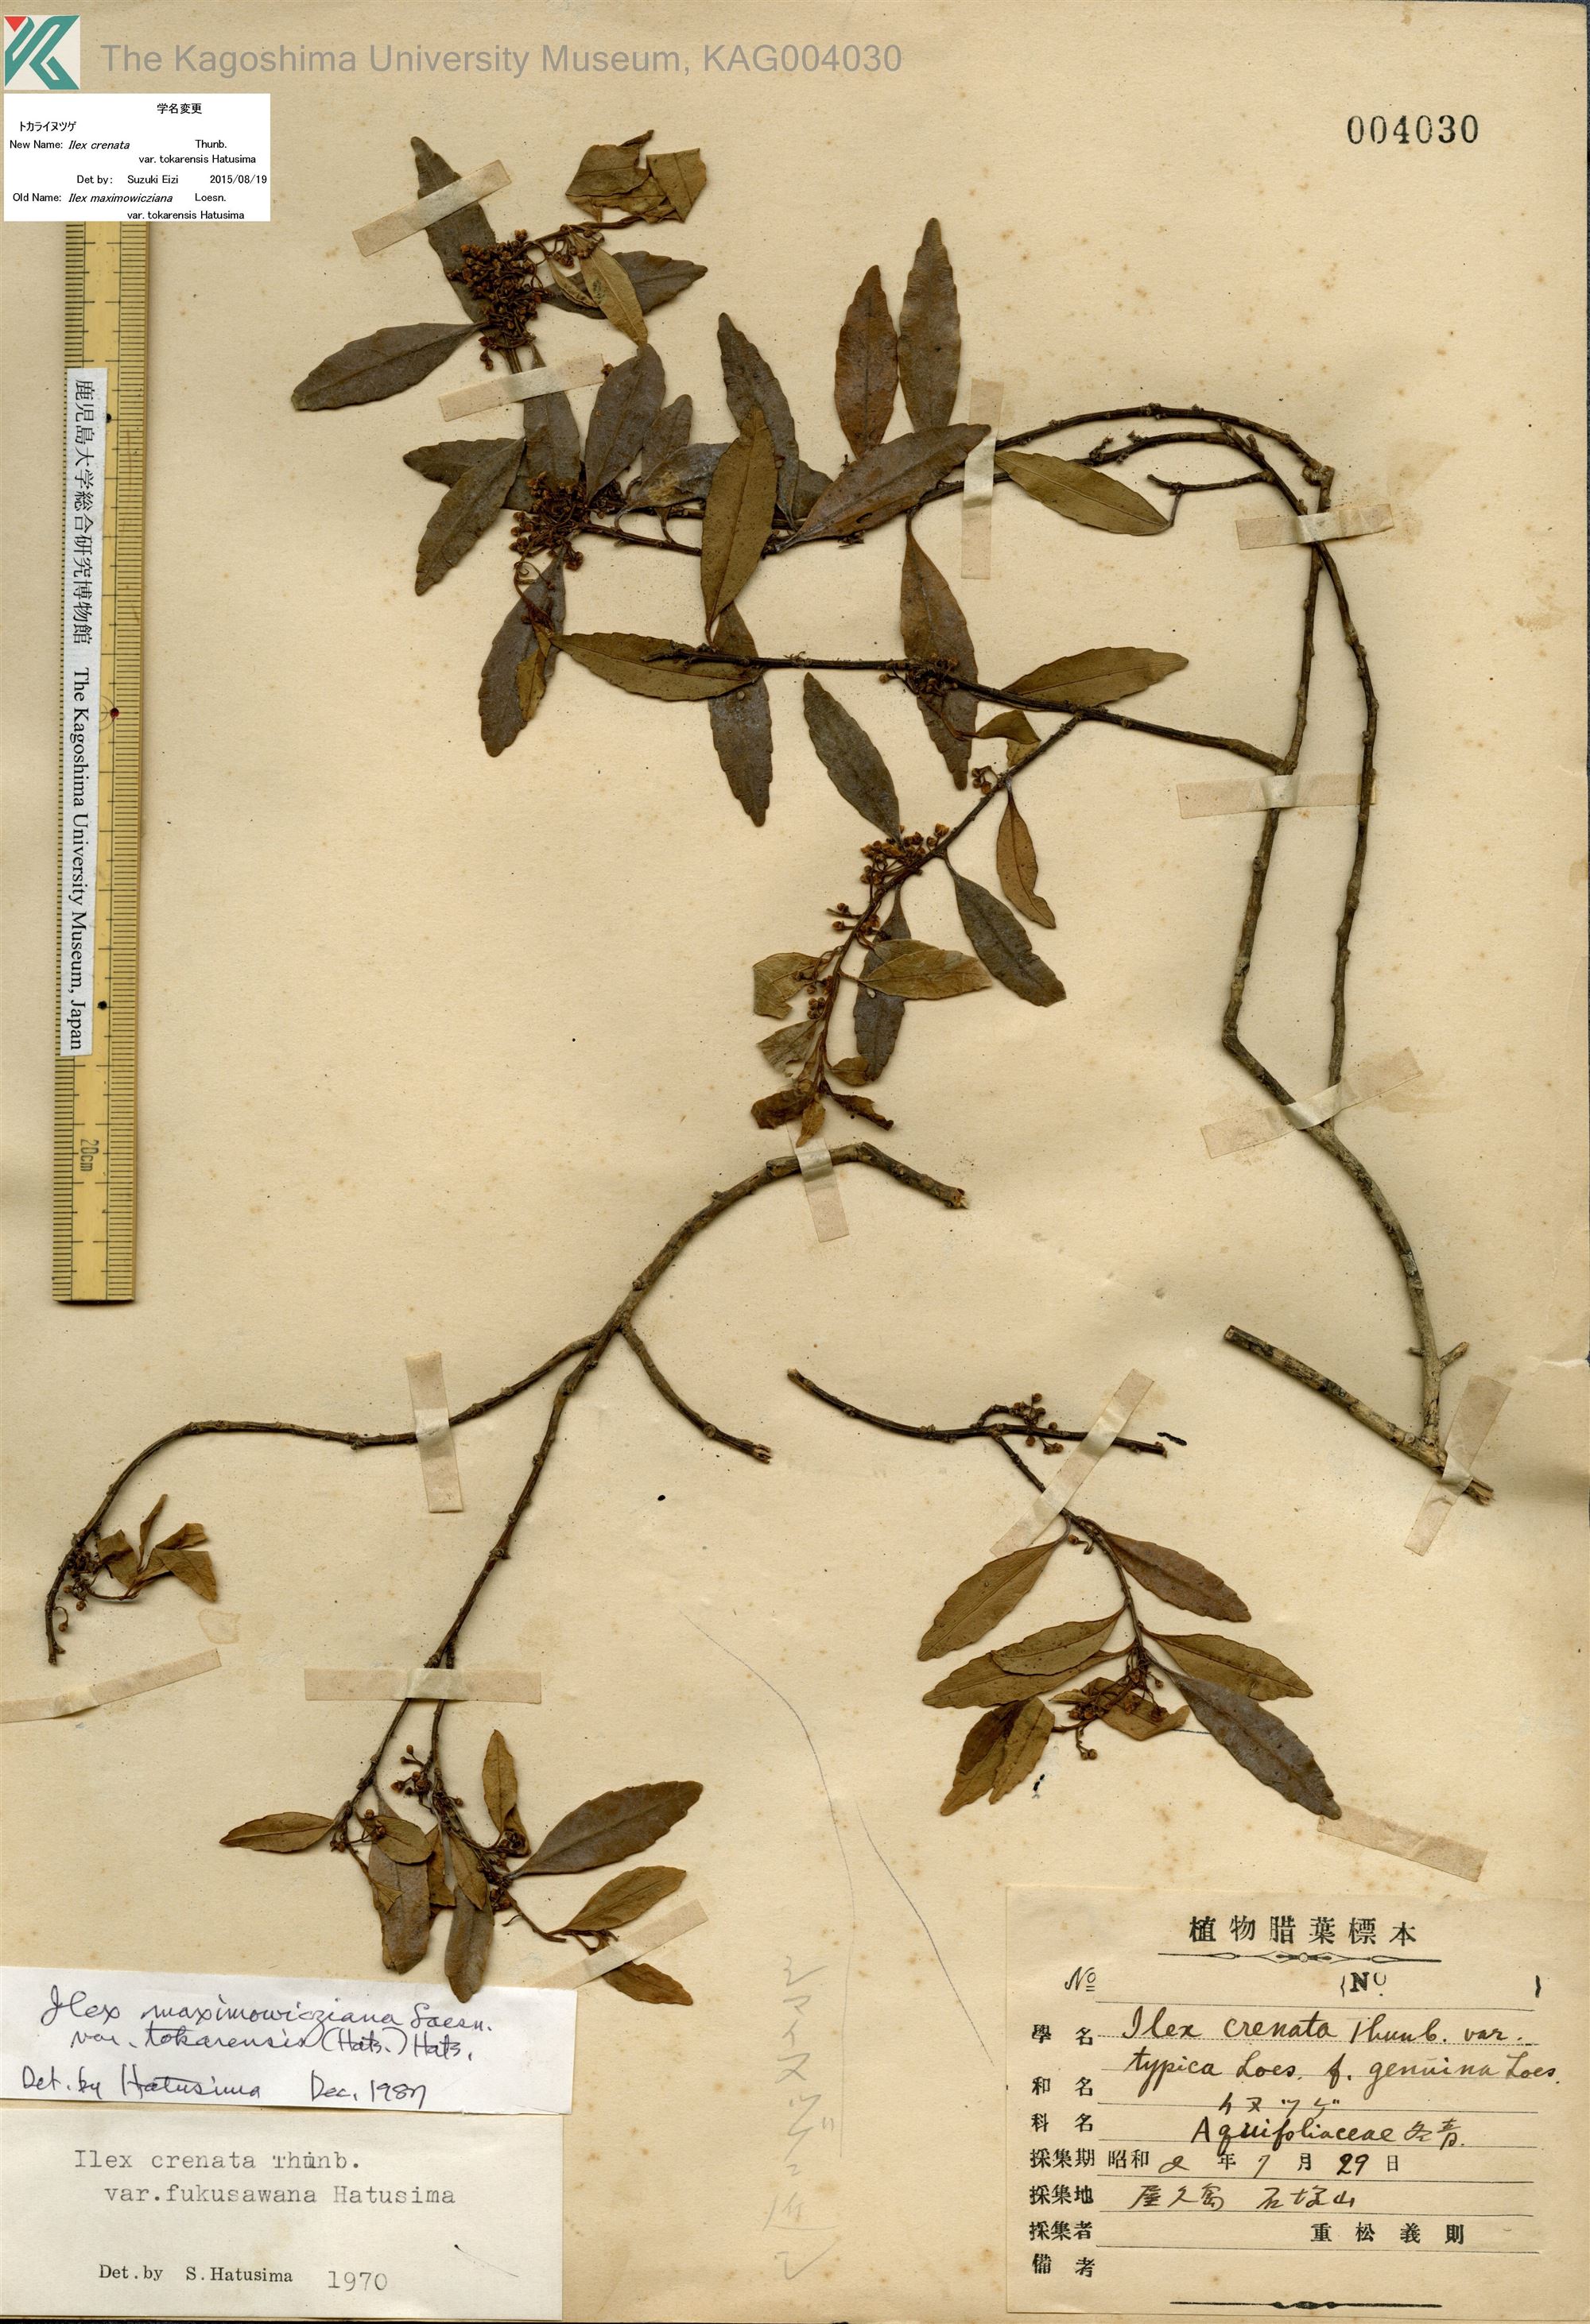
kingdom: Plantae
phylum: Tracheophyta
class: Magnoliopsida
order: Aquifoliales
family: Aquifoliaceae
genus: Ilex
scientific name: Ilex crenata
